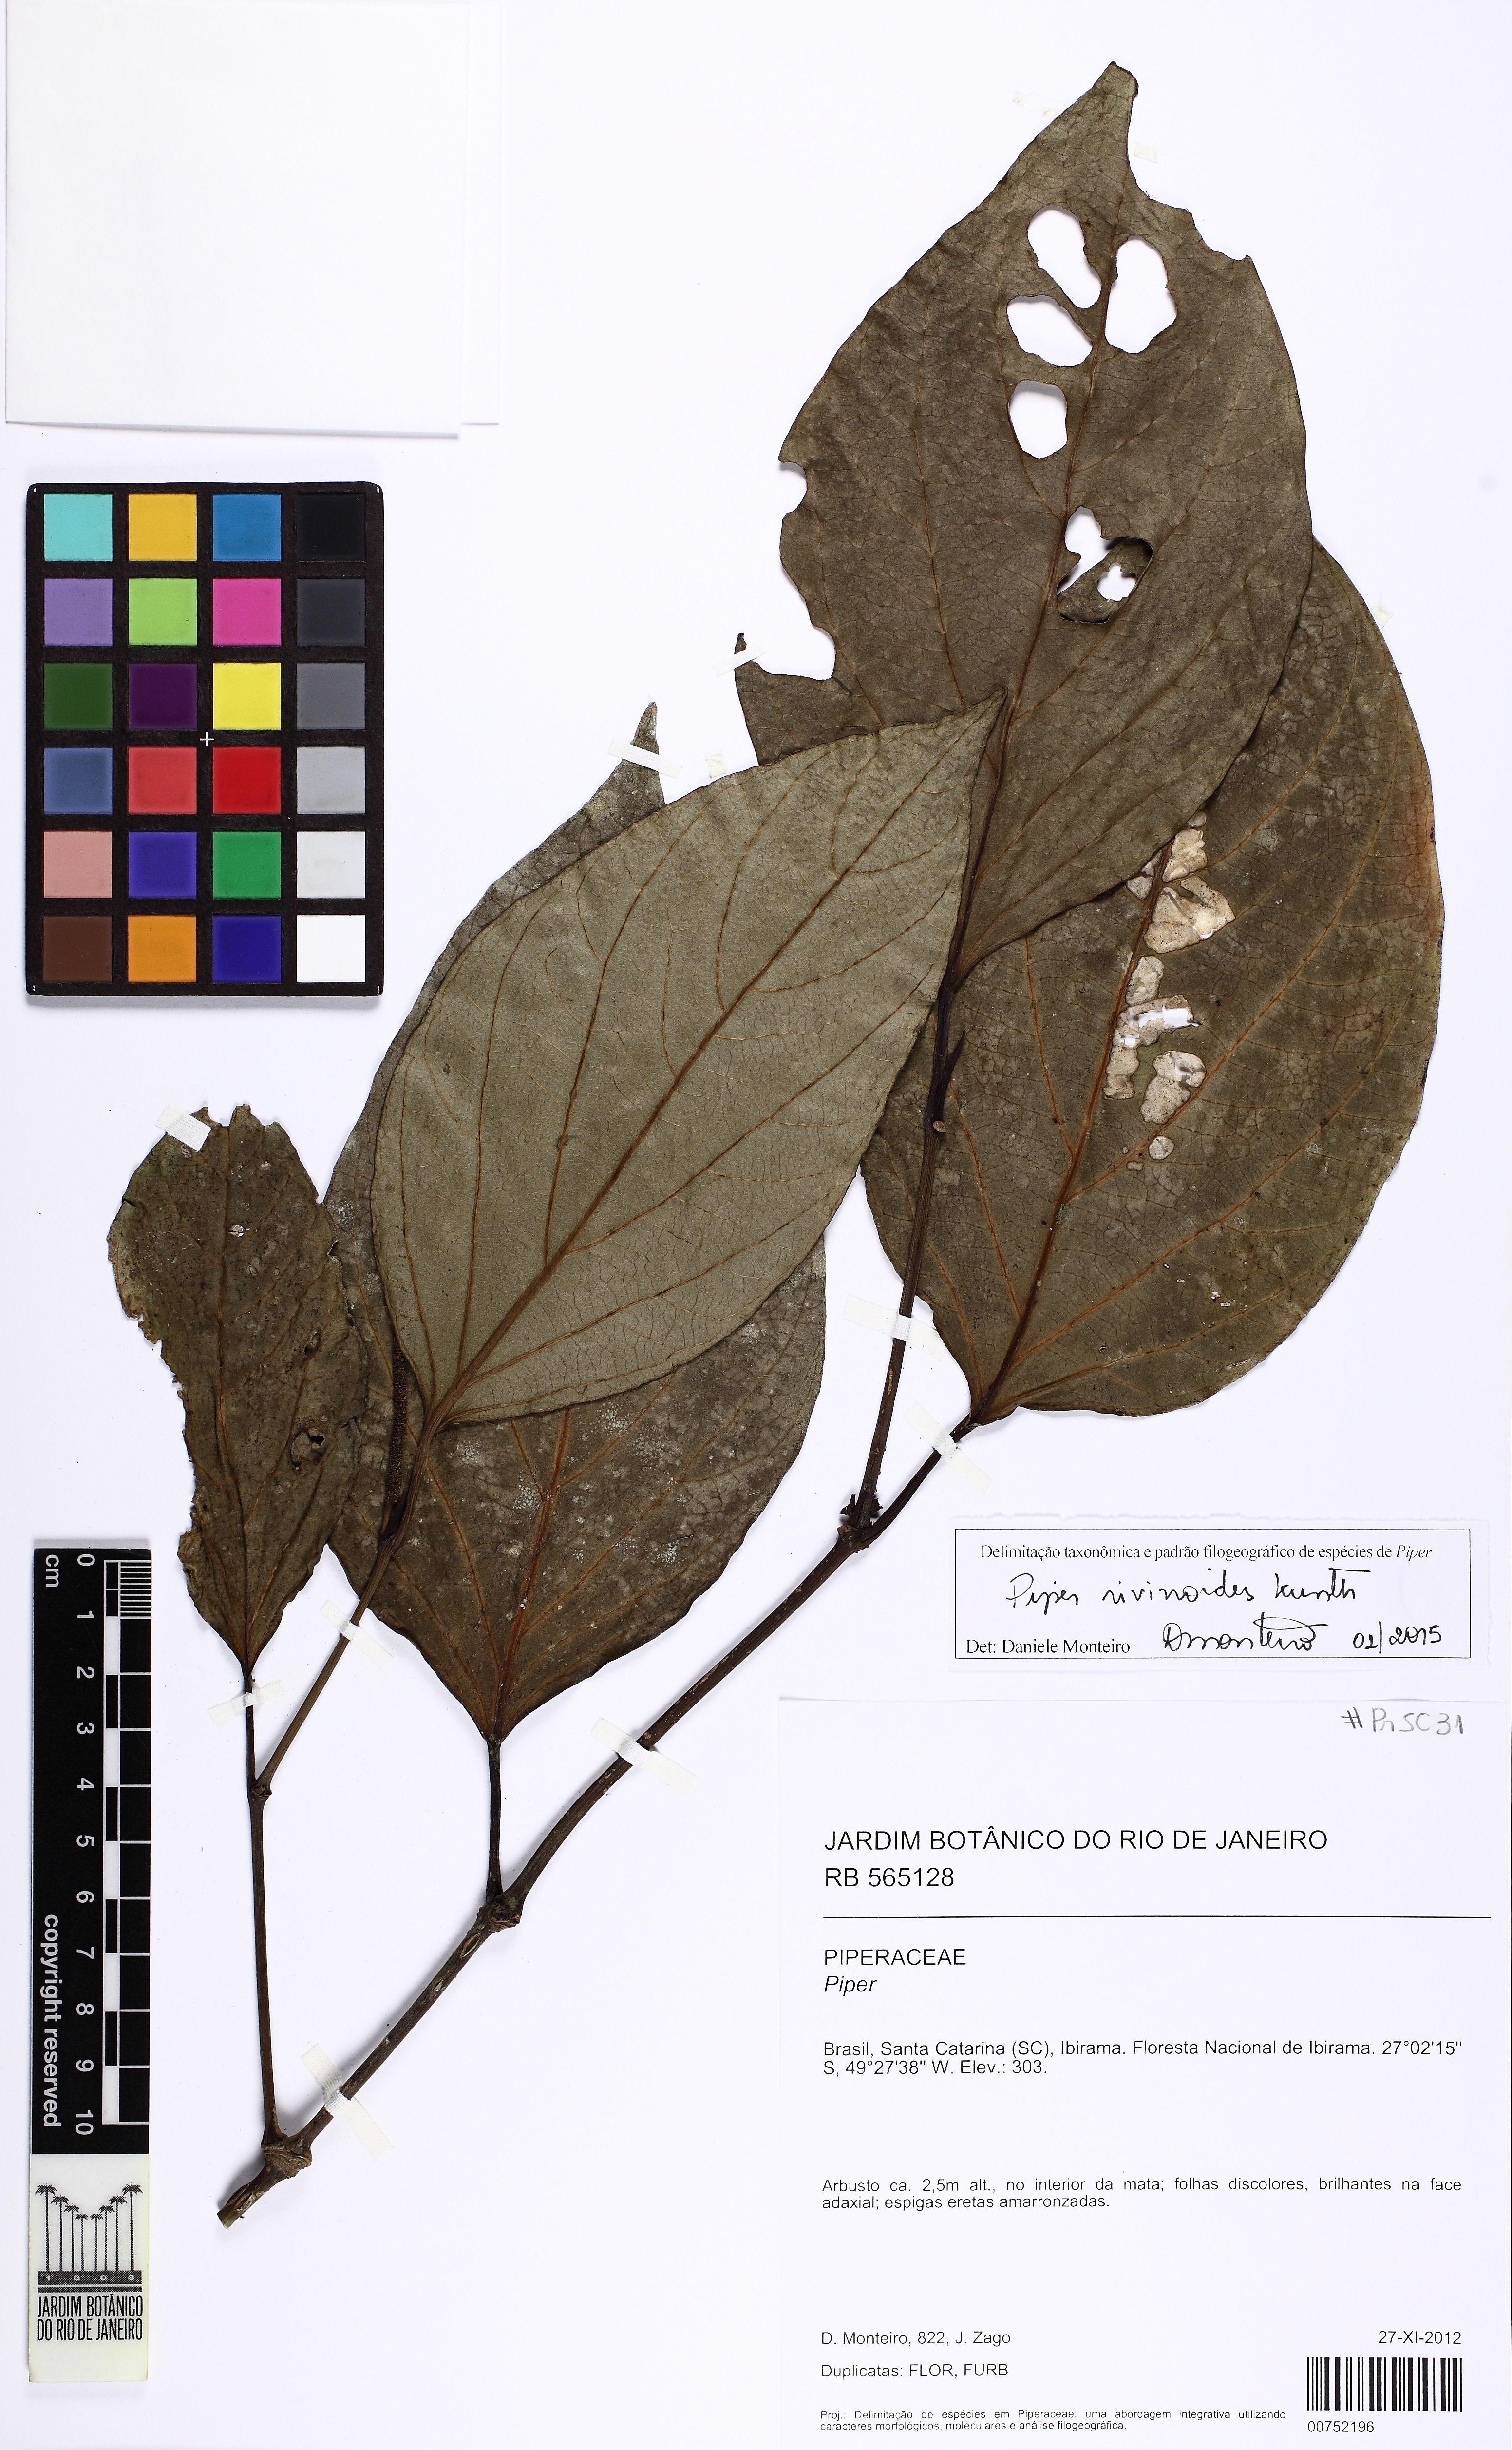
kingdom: Plantae
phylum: Tracheophyta
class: Magnoliopsida
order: Piperales
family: Piperaceae
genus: Piper
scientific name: Piper rivinoides
